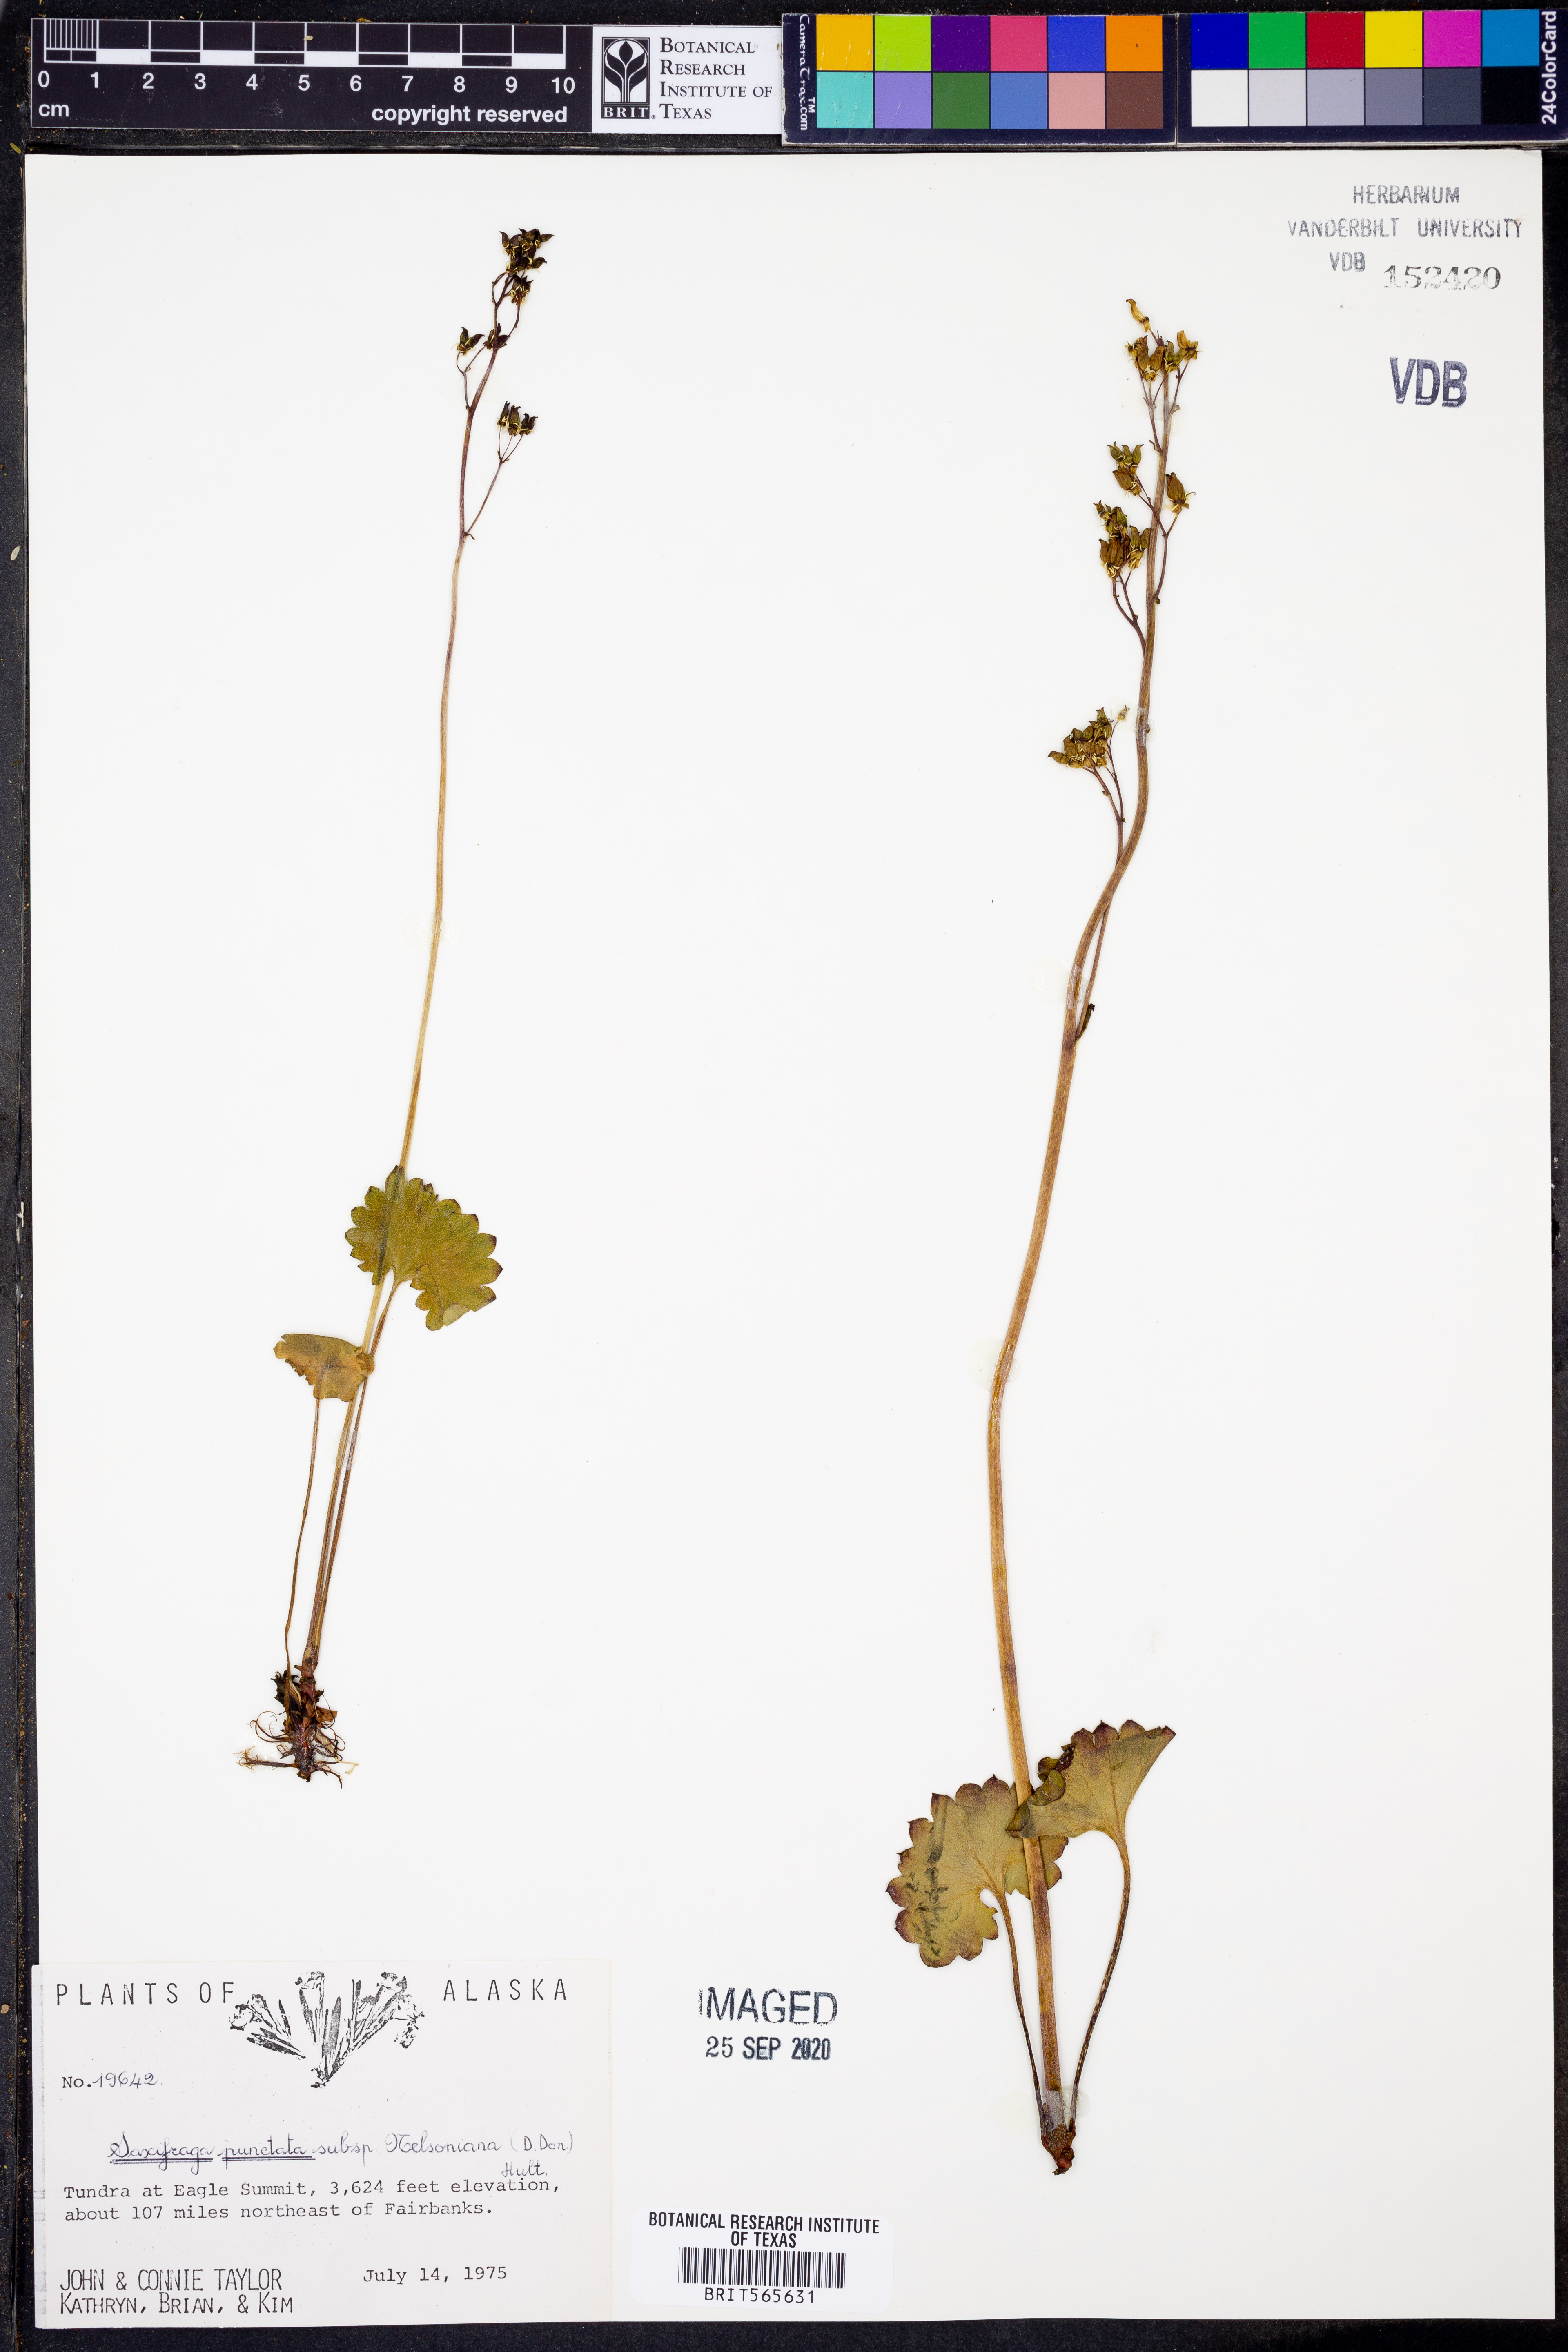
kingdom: Plantae
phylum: Tracheophyta
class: Magnoliopsida
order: Saxifragales
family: Saxifragaceae
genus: Micranthes
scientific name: Micranthes nelsoniana
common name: Nelson's saxifrage
